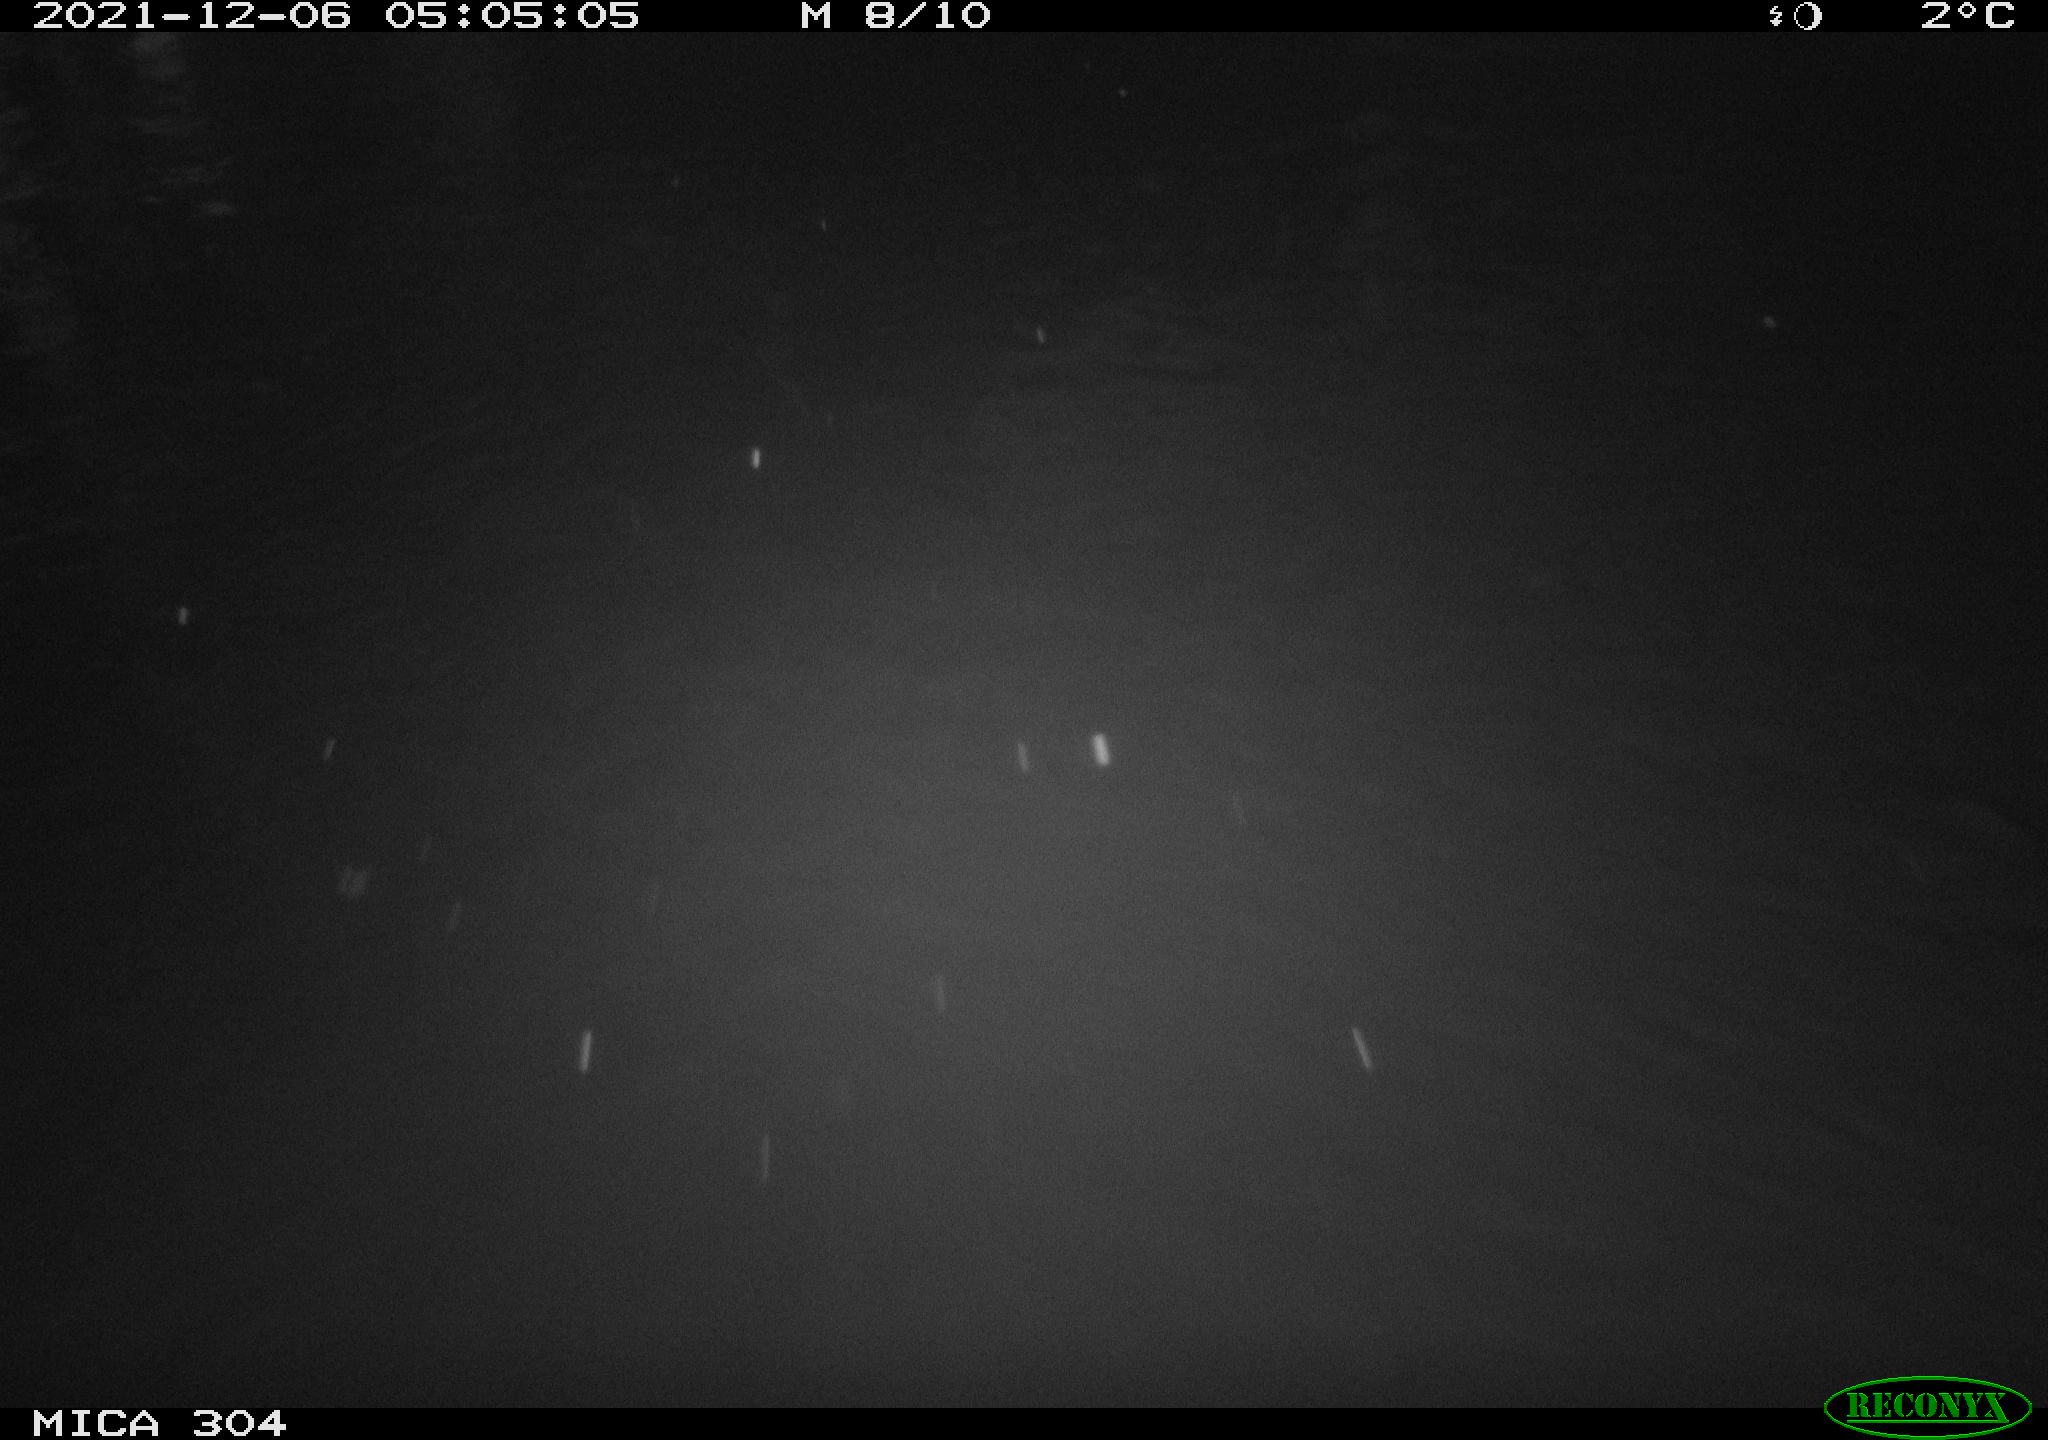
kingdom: Animalia
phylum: Chordata
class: Mammalia
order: Rodentia
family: Muridae
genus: Rattus
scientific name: Rattus norvegicus
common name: Brown rat
